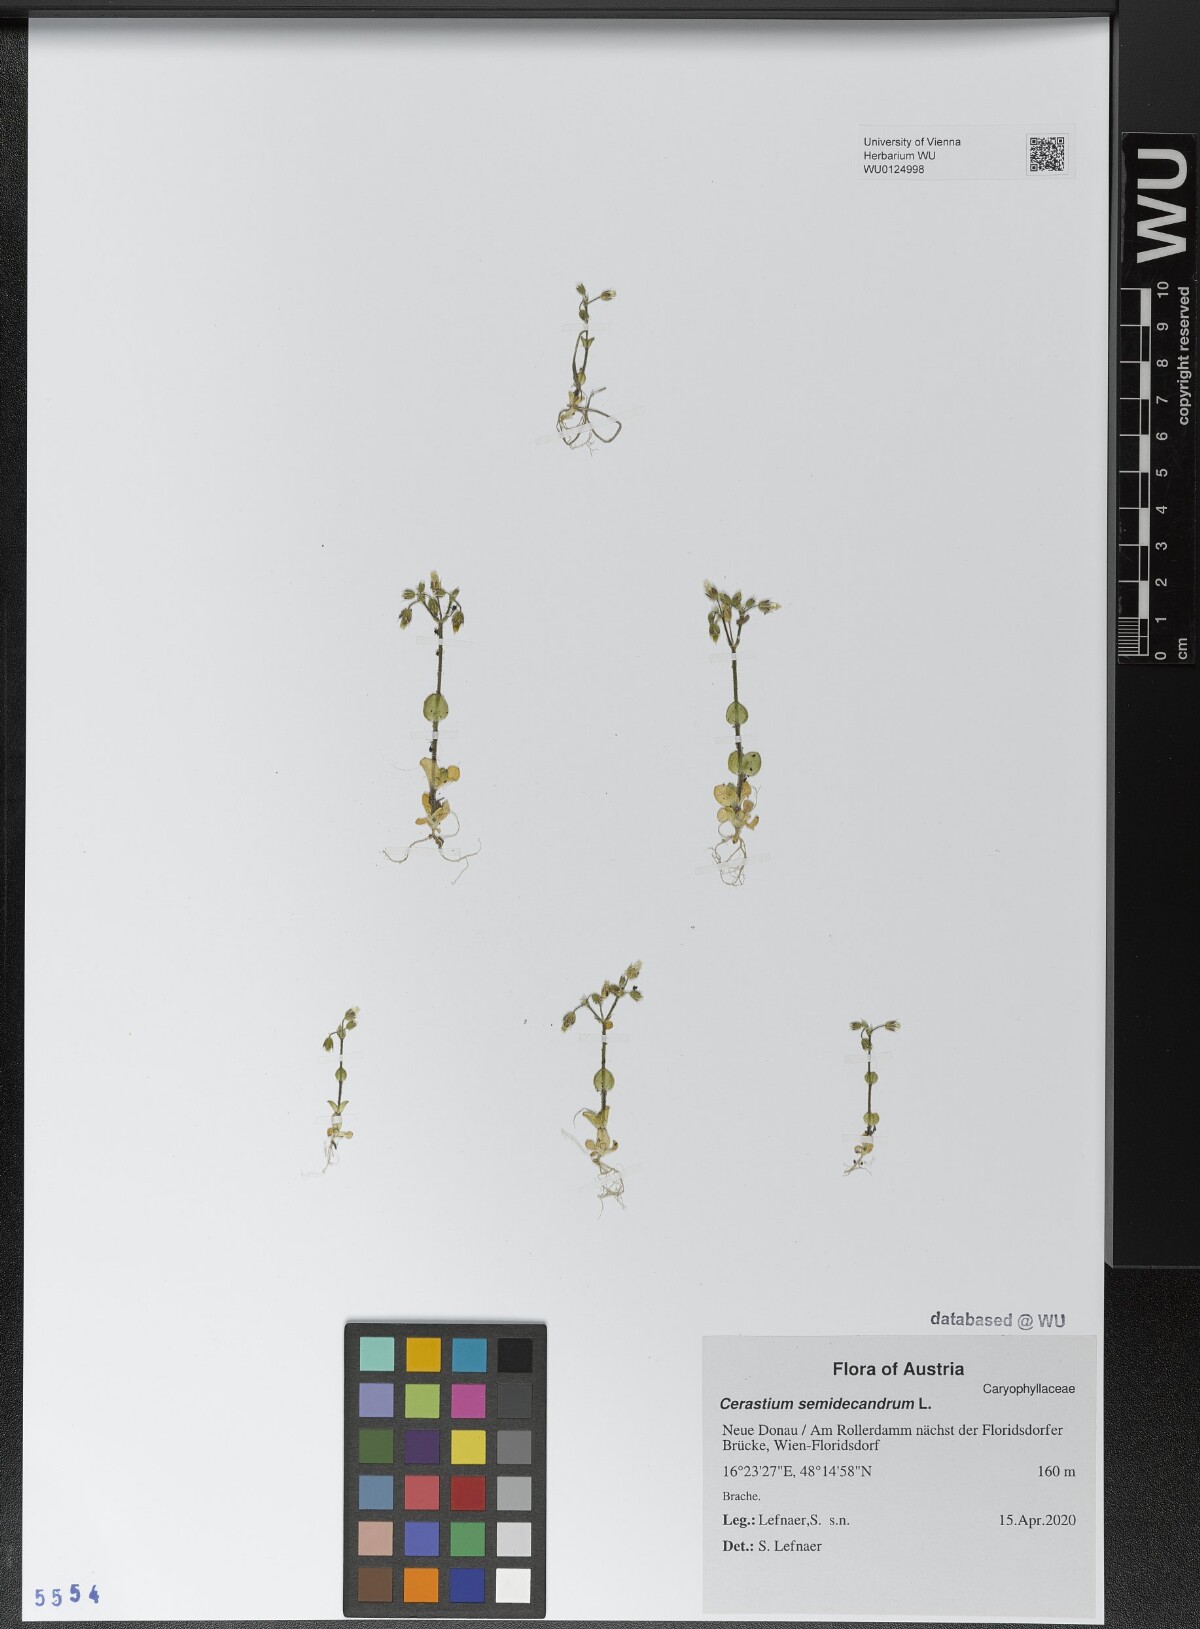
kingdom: Plantae
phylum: Tracheophyta
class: Magnoliopsida
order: Caryophyllales
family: Caryophyllaceae
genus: Cerastium
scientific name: Cerastium semidecandrum
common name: Little mouse-ear
